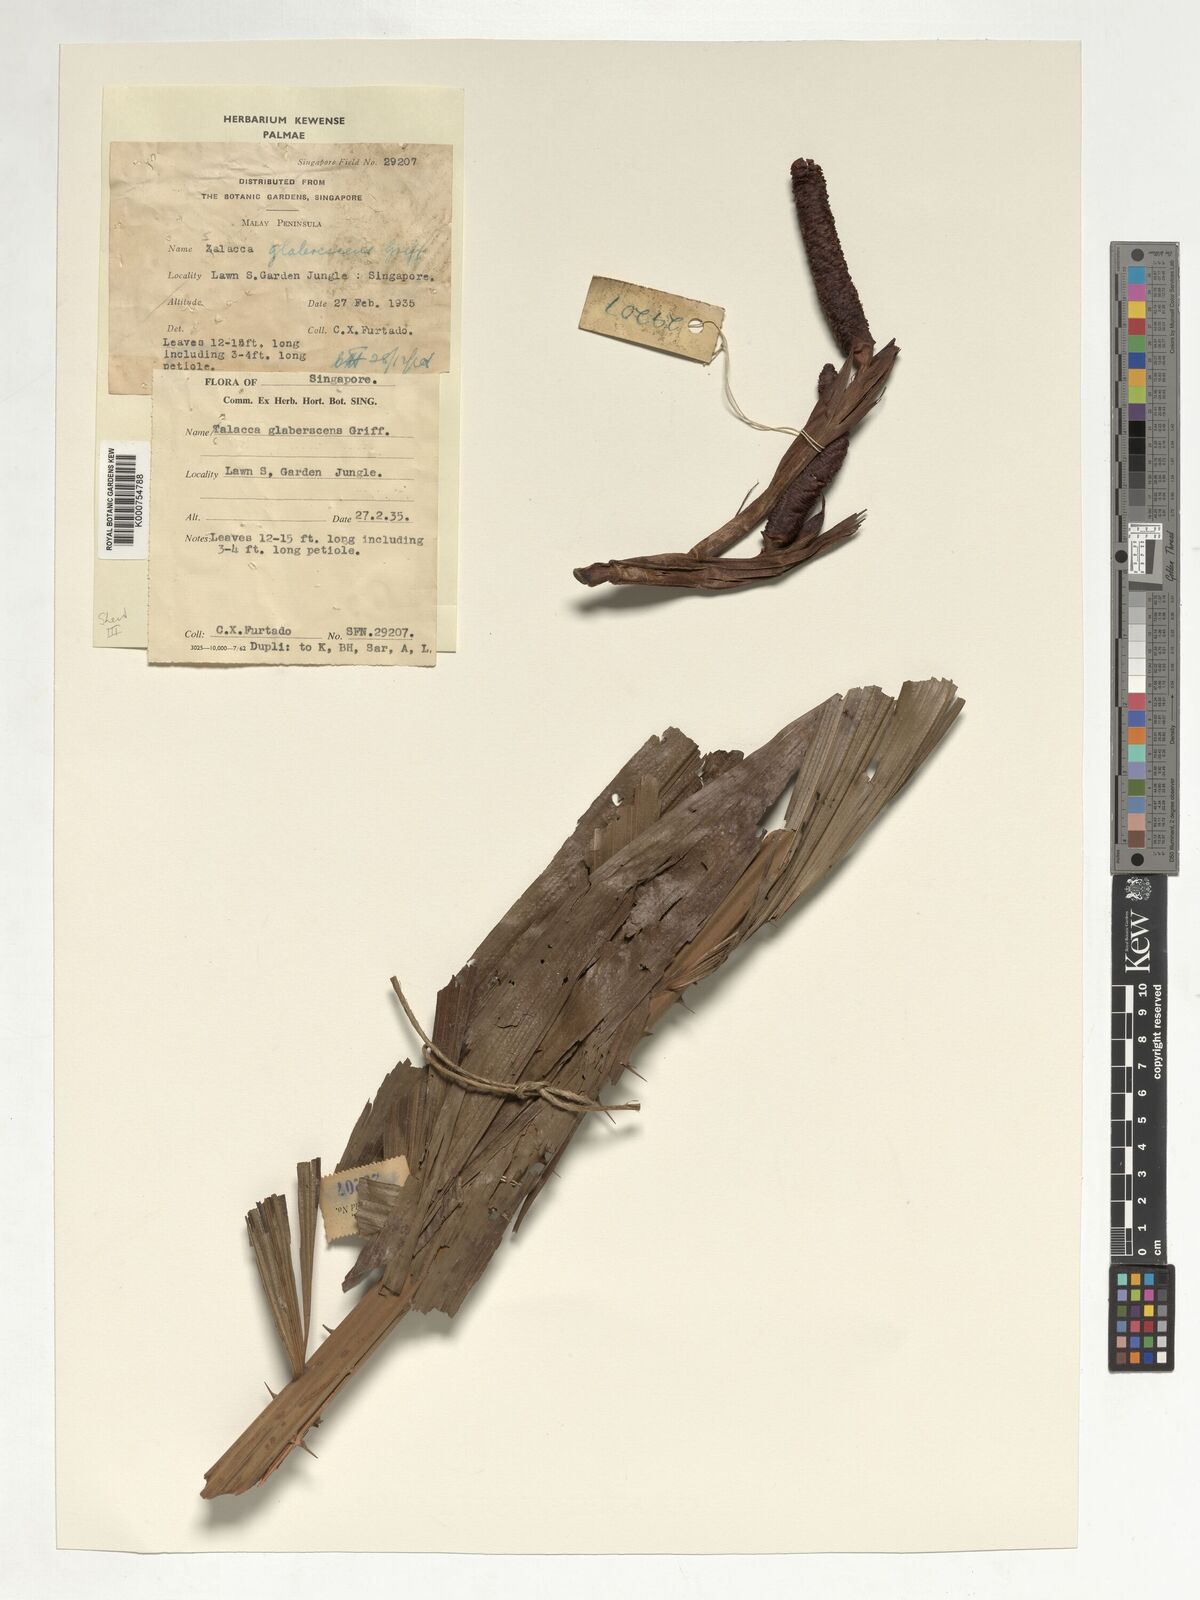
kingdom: Plantae
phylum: Tracheophyta
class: Liliopsida
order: Arecales
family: Arecaceae
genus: Salacca
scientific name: Salacca glabrescens
